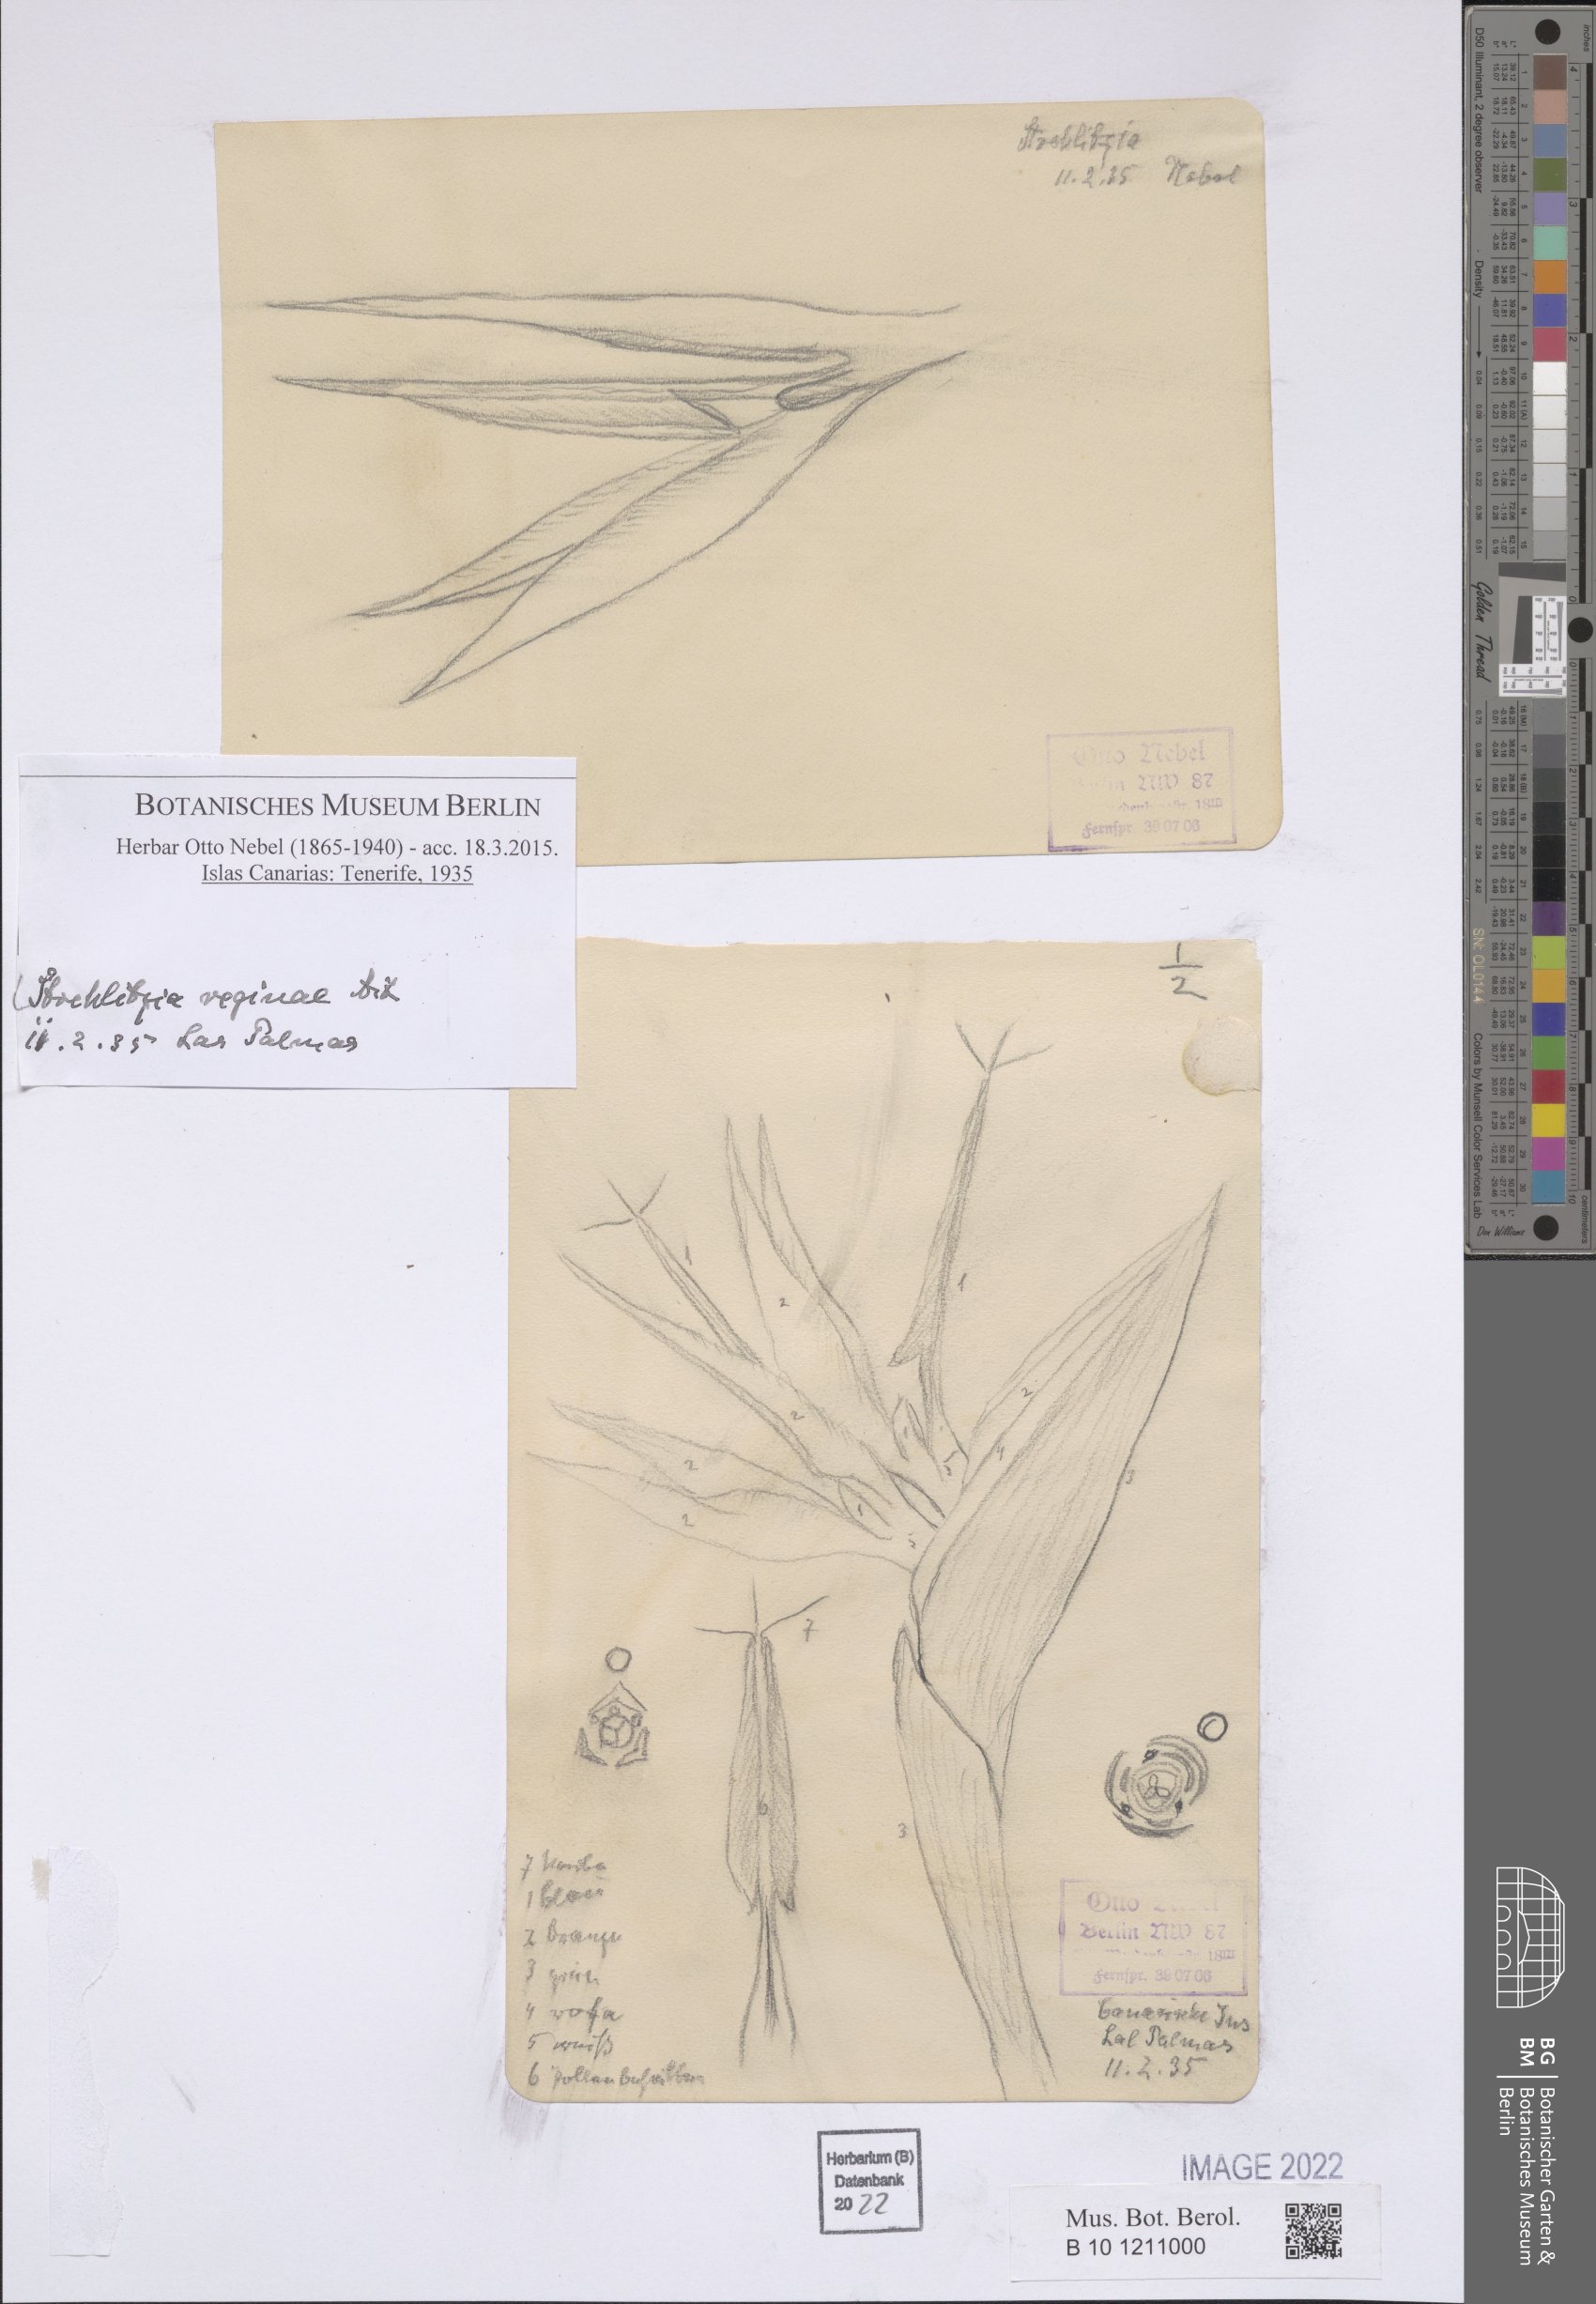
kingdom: Plantae
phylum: Tracheophyta
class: Liliopsida
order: Zingiberales
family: Strelitziaceae
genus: Strelitzia
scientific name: Strelitzia reginae
